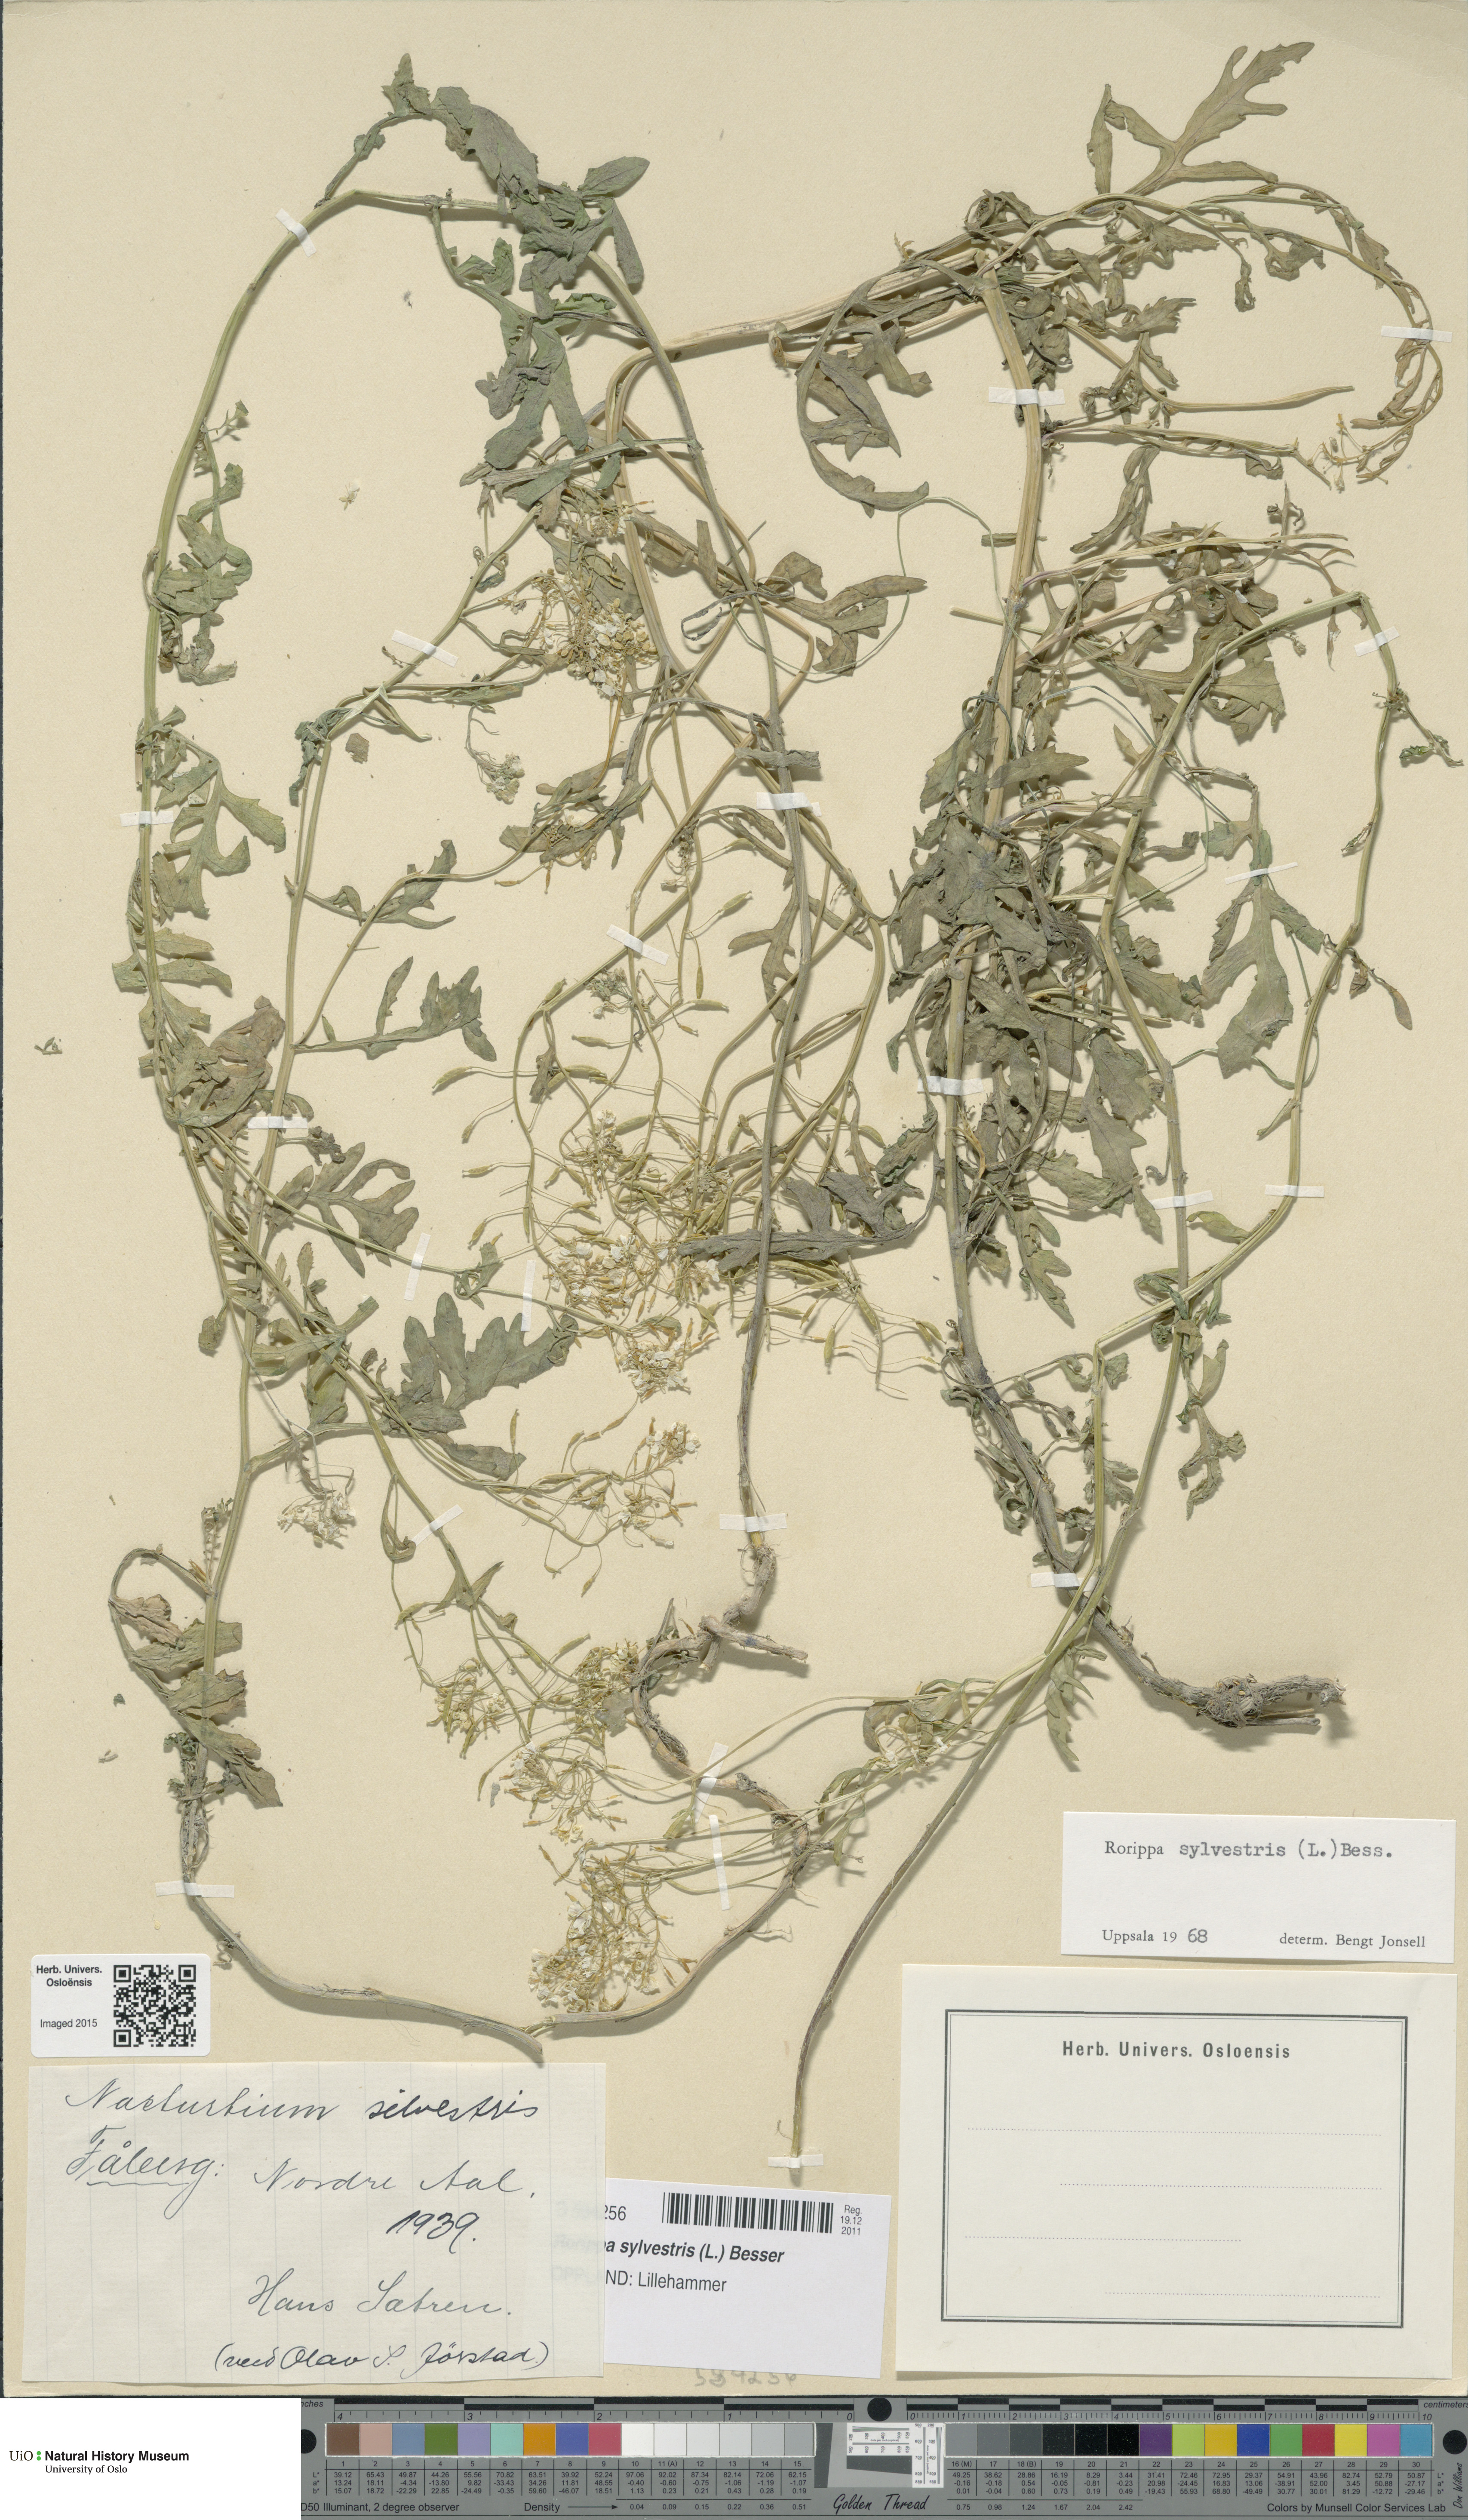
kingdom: Plantae
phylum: Tracheophyta
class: Magnoliopsida
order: Brassicales
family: Brassicaceae
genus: Rorippa
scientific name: Rorippa sylvestris
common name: Creeping yellowcress
